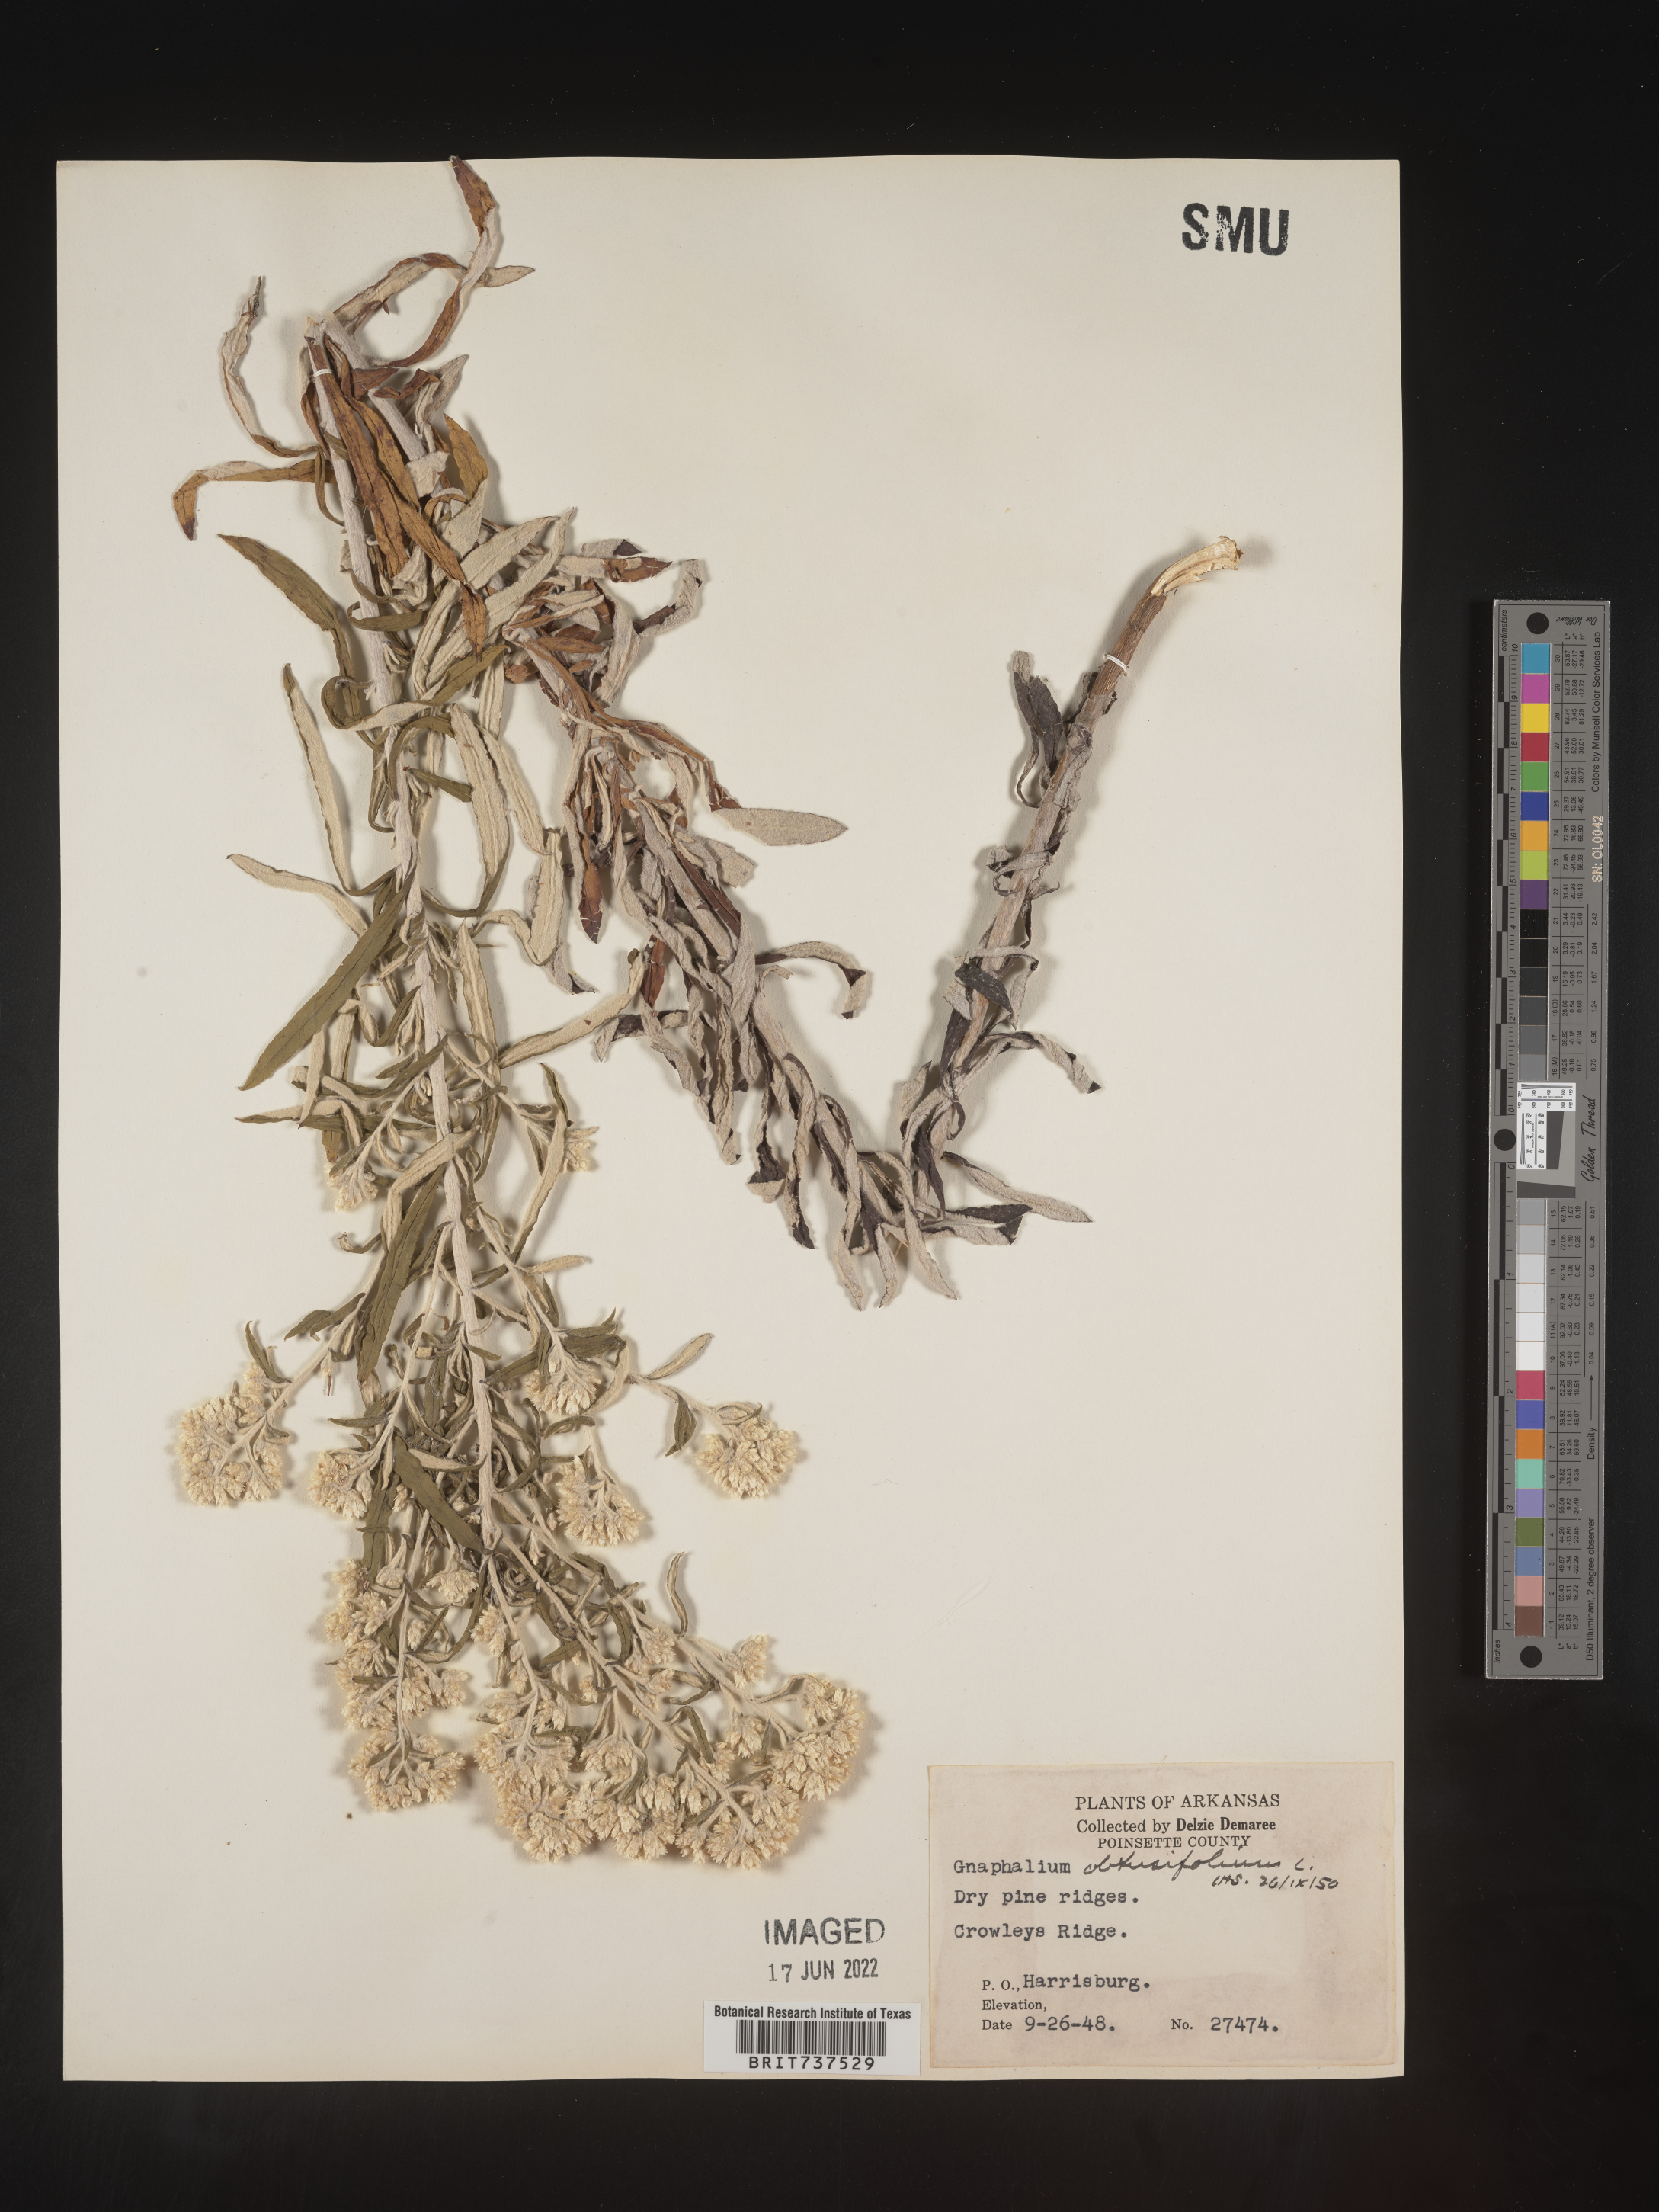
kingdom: Plantae
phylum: Tracheophyta
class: Magnoliopsida
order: Asterales
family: Asteraceae
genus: Pseudognaphalium
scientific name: Pseudognaphalium obtusifolium
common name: Eastern rabbit-tobacco
